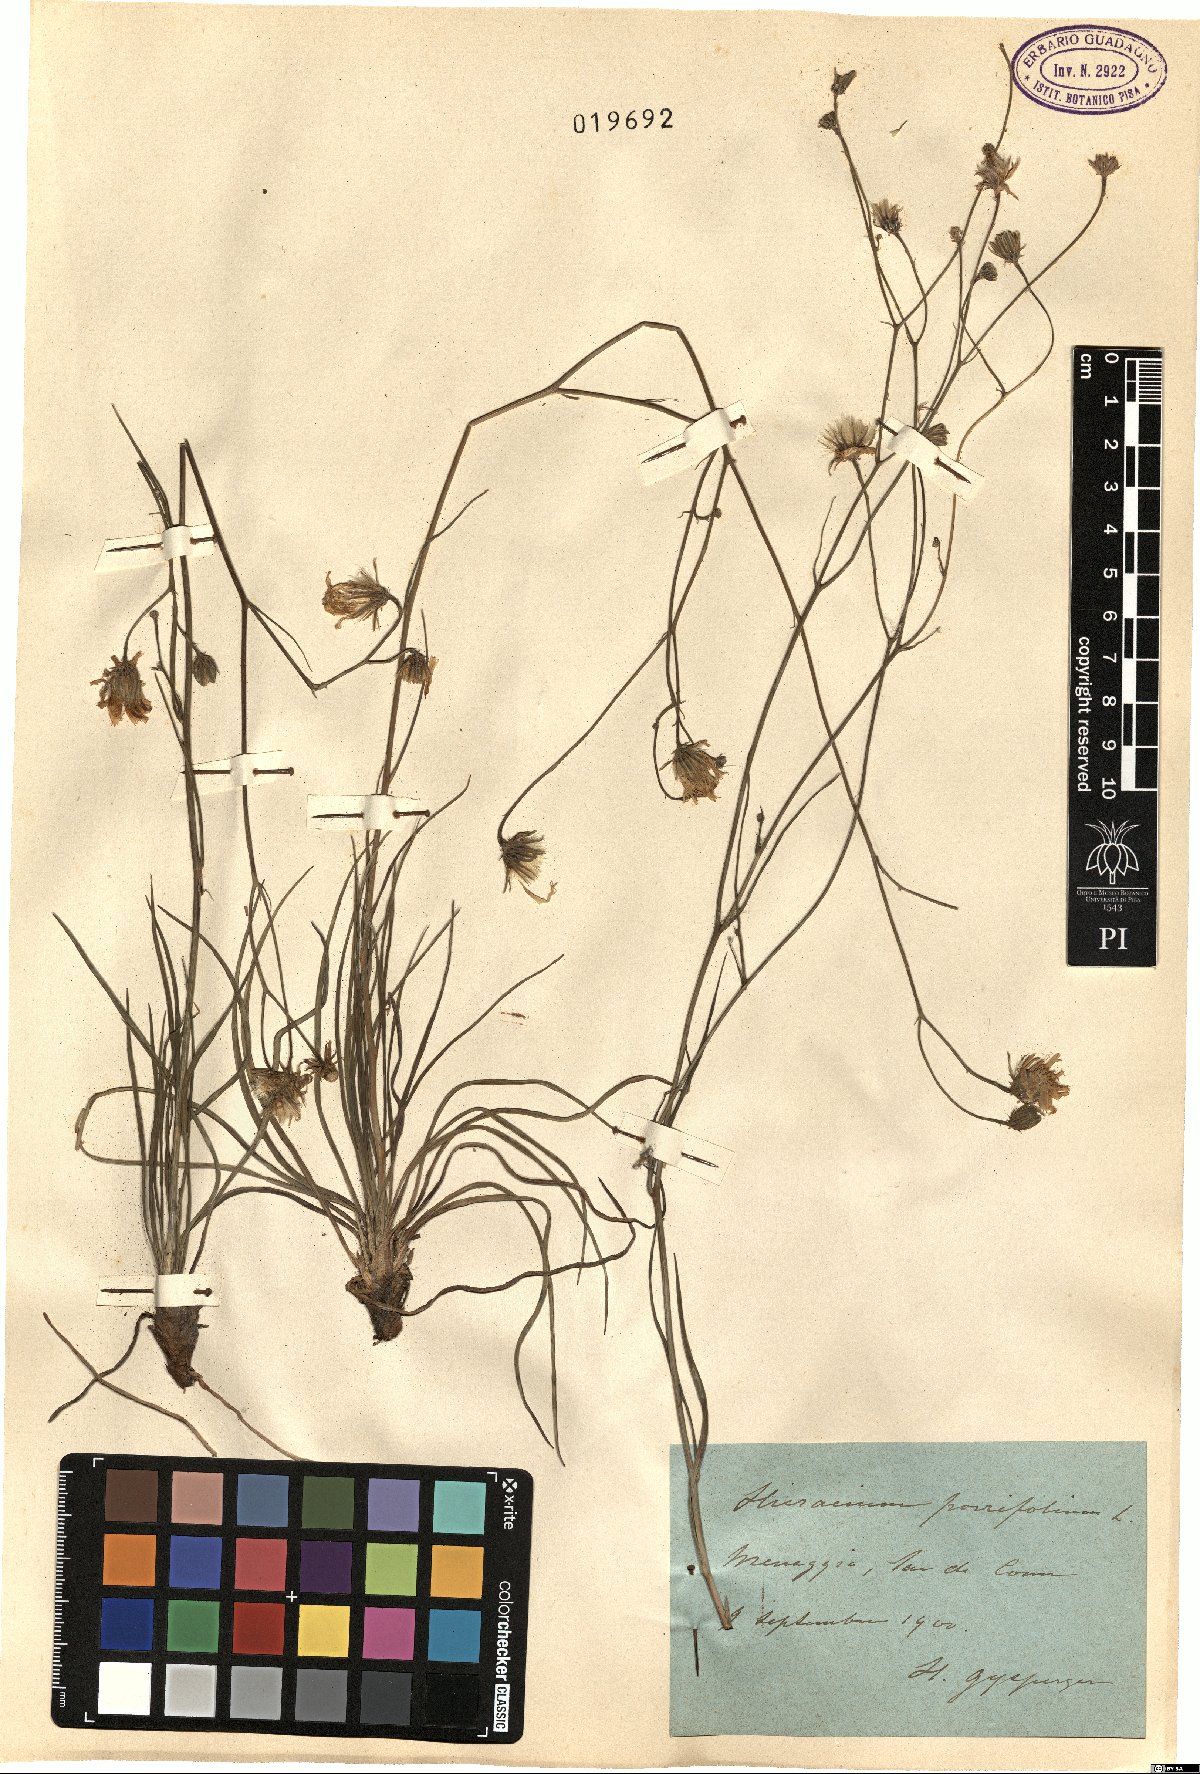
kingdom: Plantae
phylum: Tracheophyta
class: Magnoliopsida
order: Asterales
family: Asteraceae
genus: Hieracium
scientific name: Hieracium porrifolium
